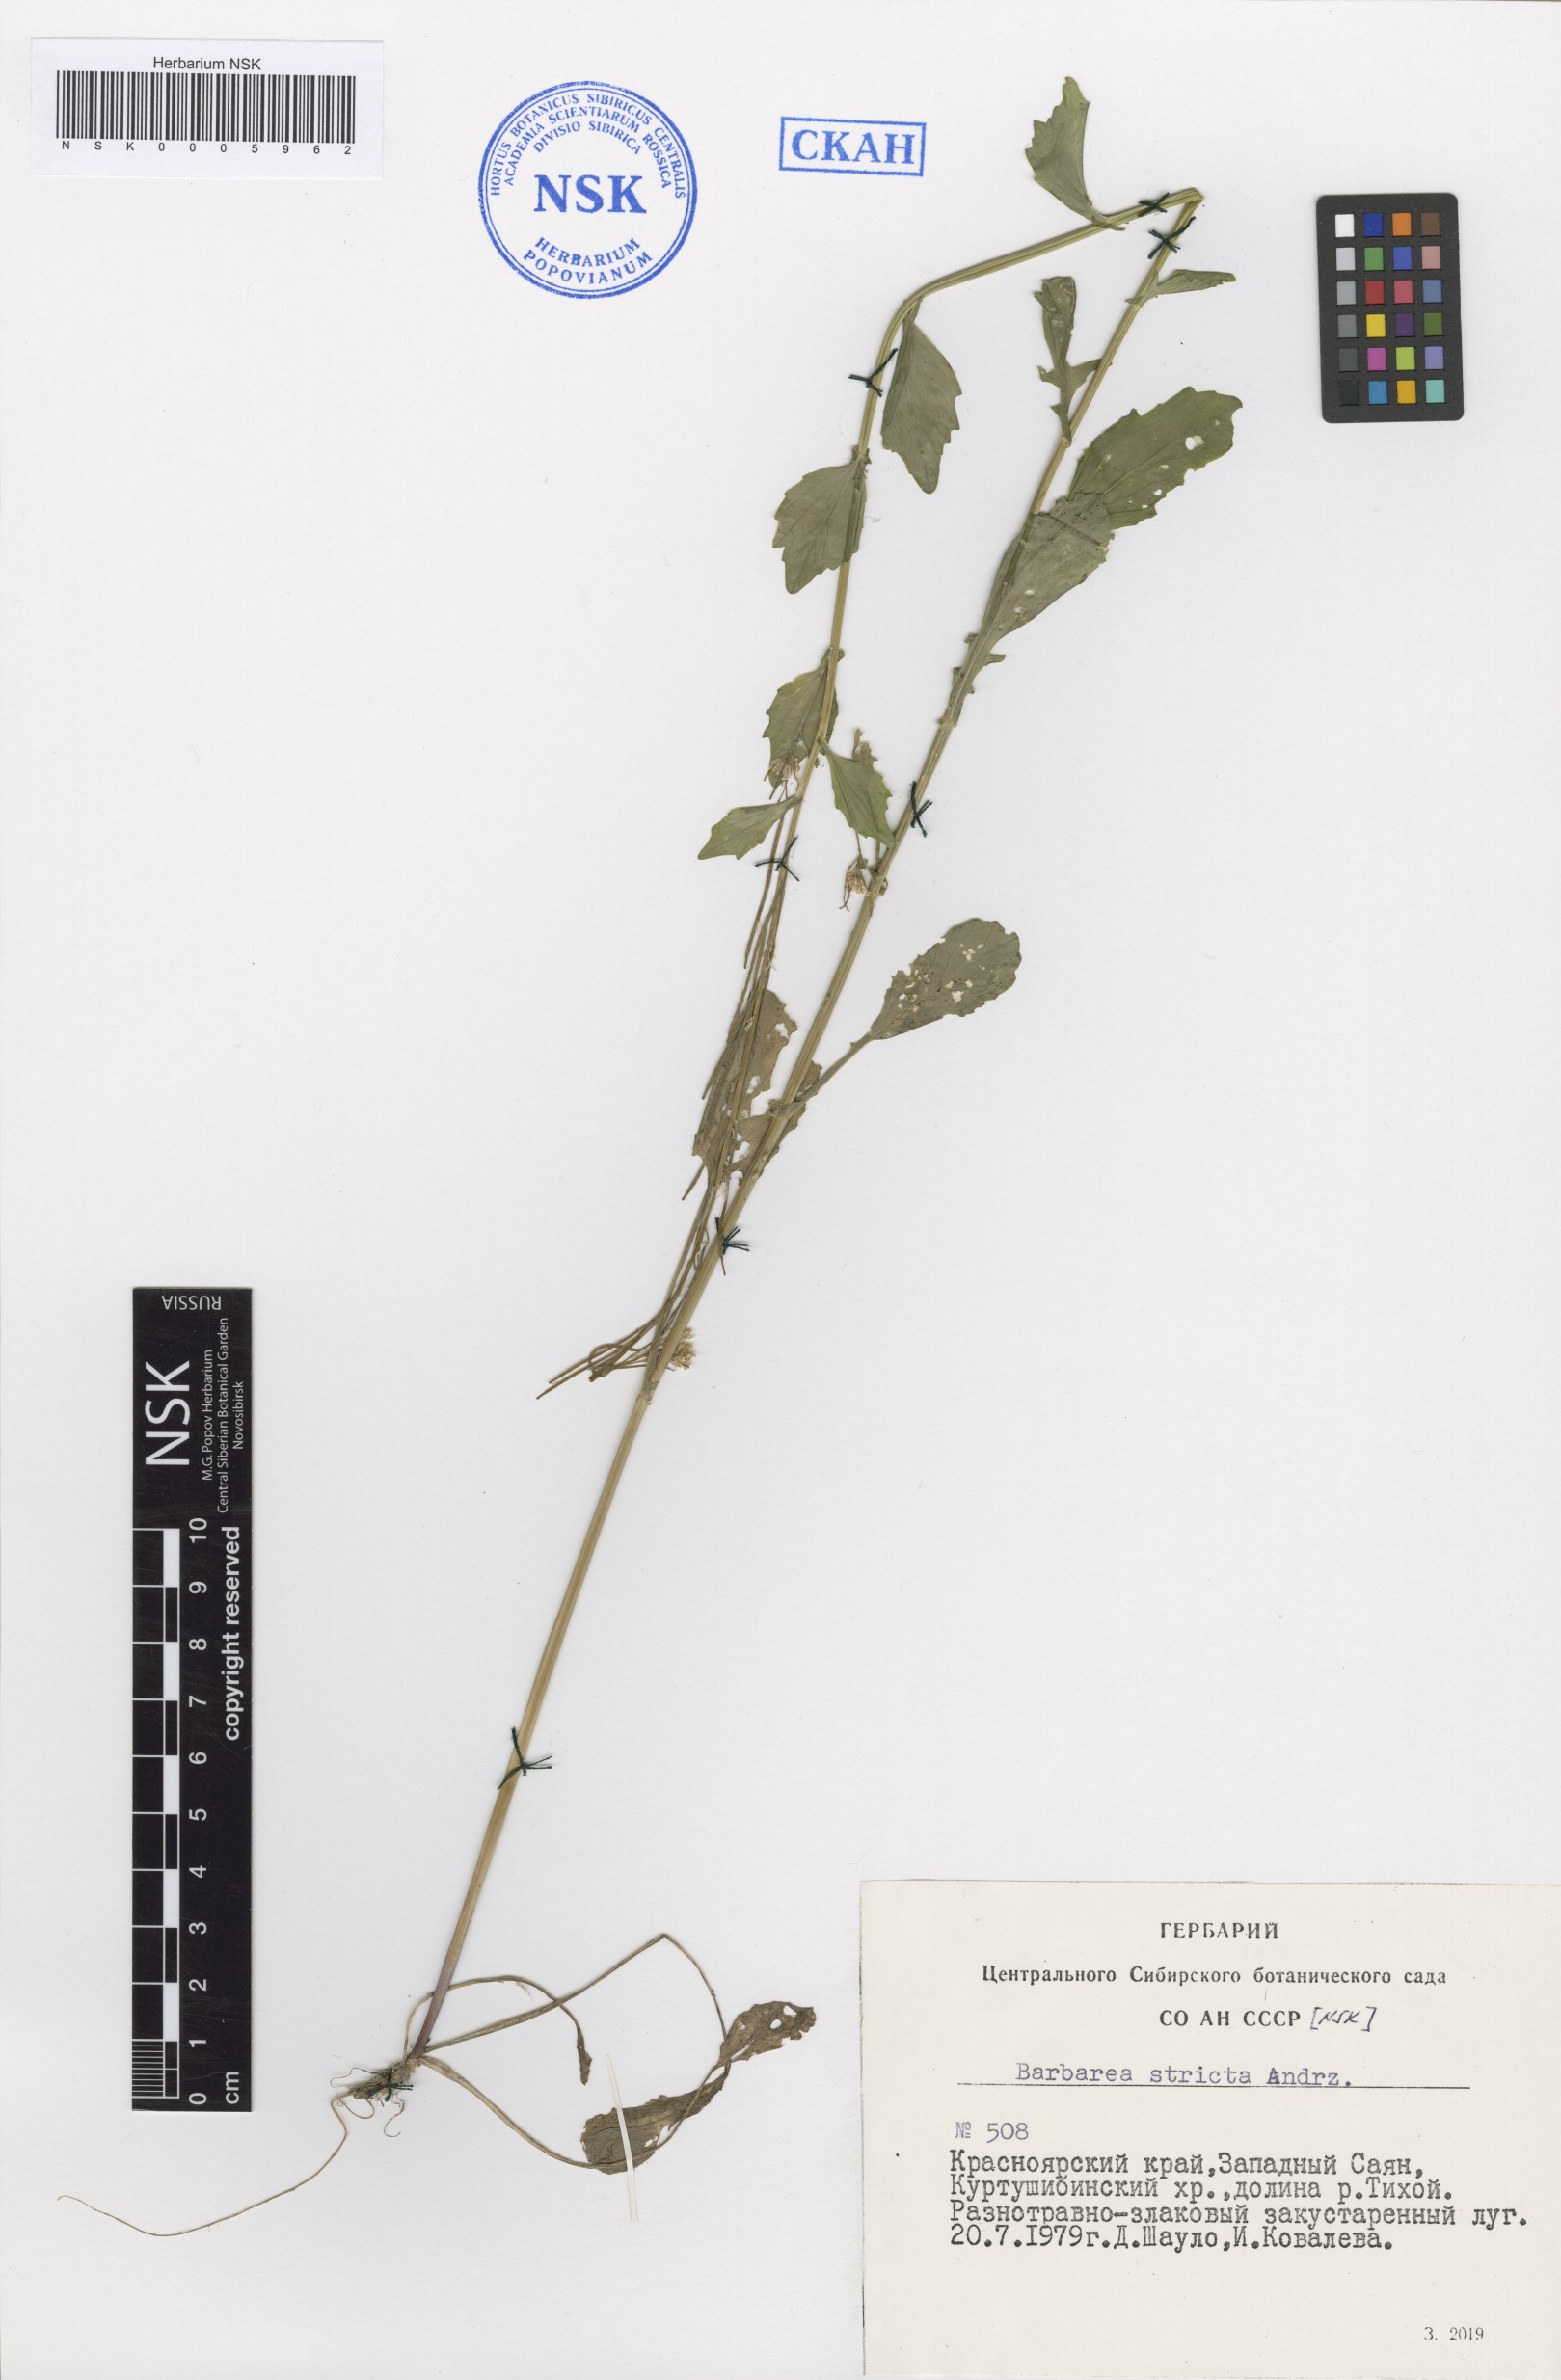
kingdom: Plantae
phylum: Tracheophyta
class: Magnoliopsida
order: Brassicales
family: Brassicaceae
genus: Barbarea
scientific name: Barbarea stricta
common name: Small-flowered winter-cress
